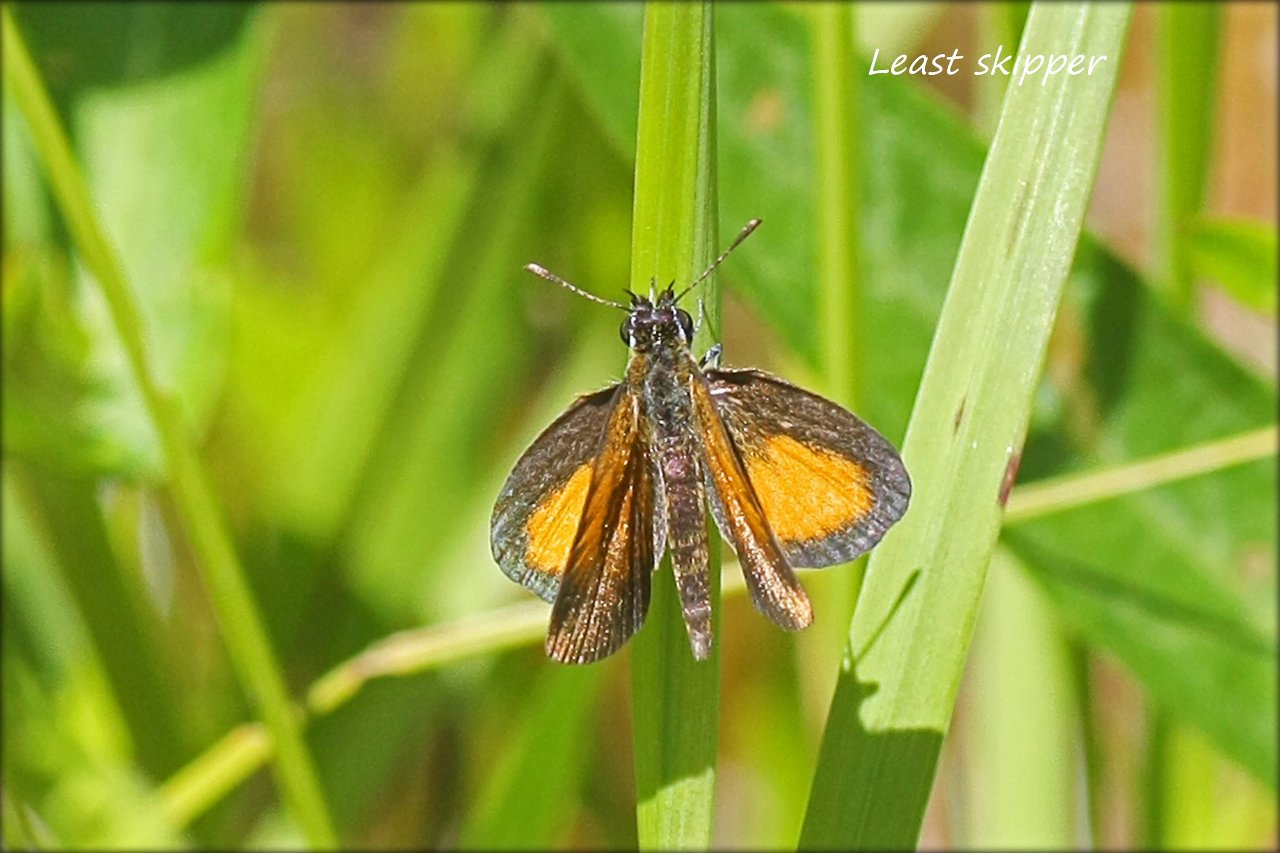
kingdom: Animalia
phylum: Arthropoda
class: Insecta
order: Lepidoptera
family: Hesperiidae
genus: Ancyloxypha
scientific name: Ancyloxypha numitor
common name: Least Skipper
